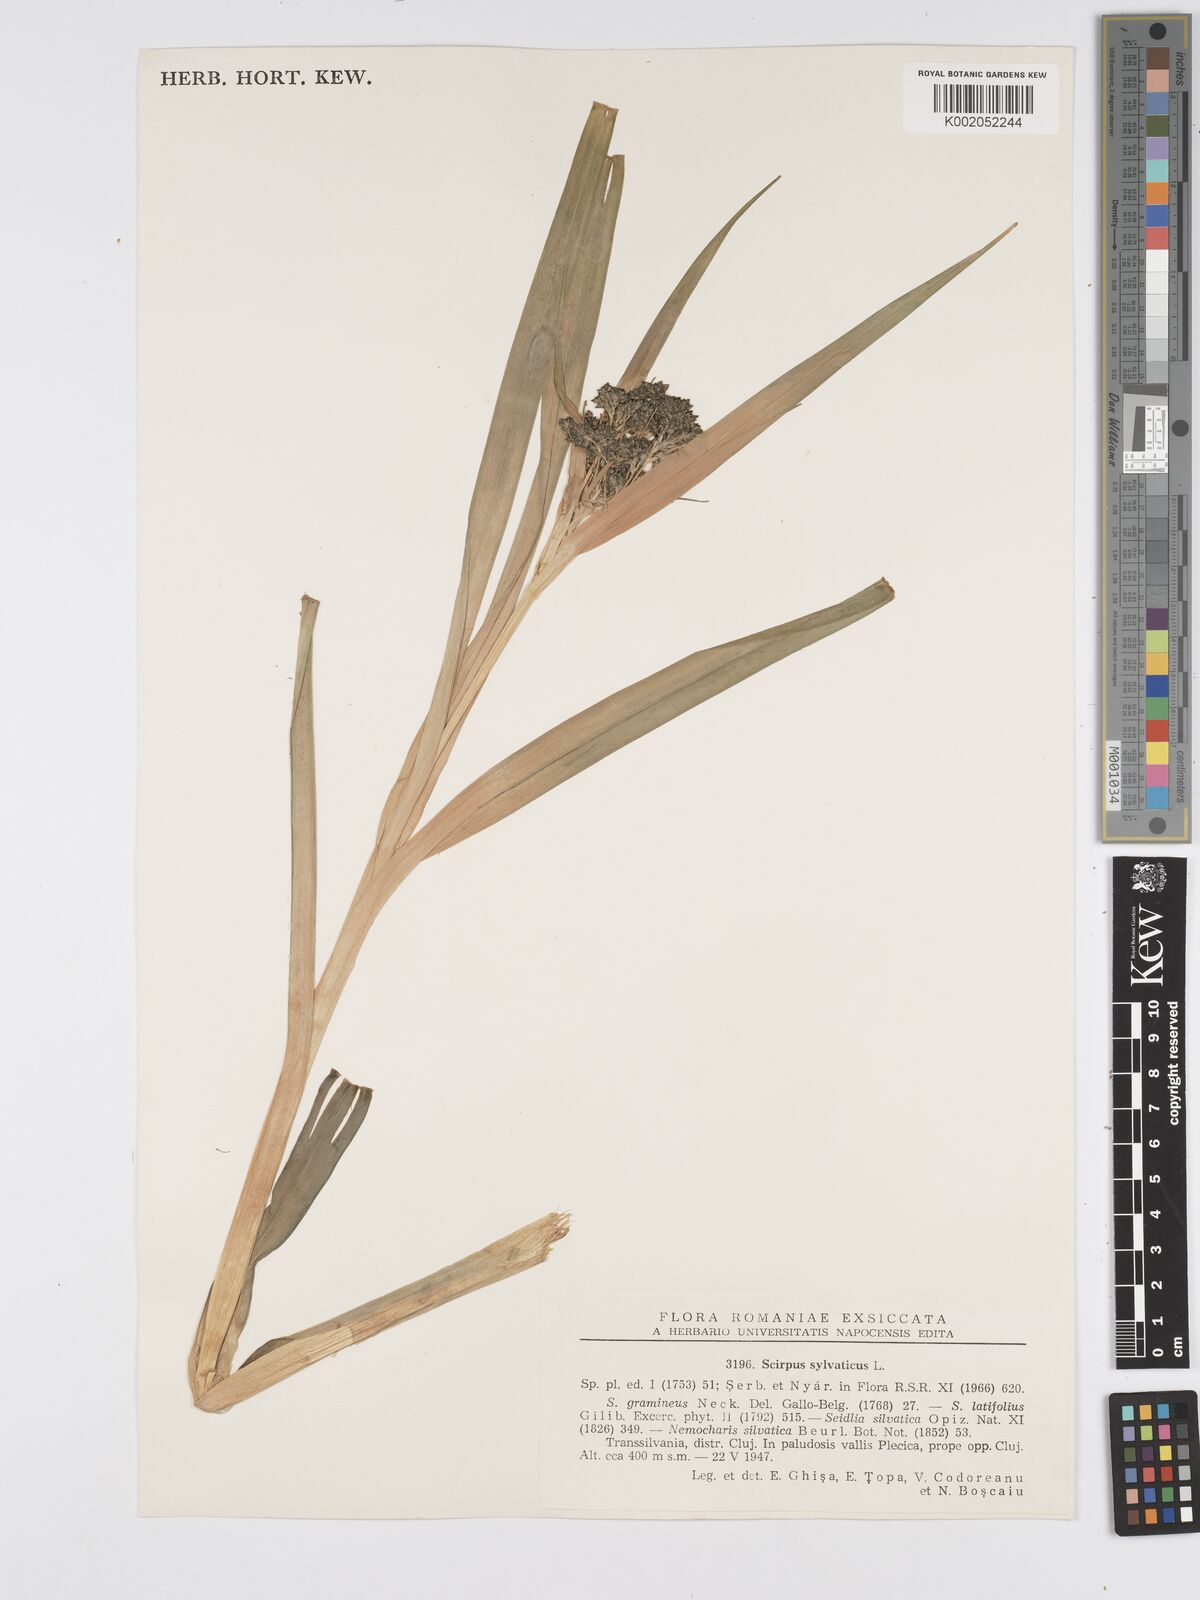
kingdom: Plantae
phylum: Tracheophyta
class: Liliopsida
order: Poales
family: Cyperaceae
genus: Scirpus
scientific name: Scirpus sylvaticus
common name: Wood club-rush
